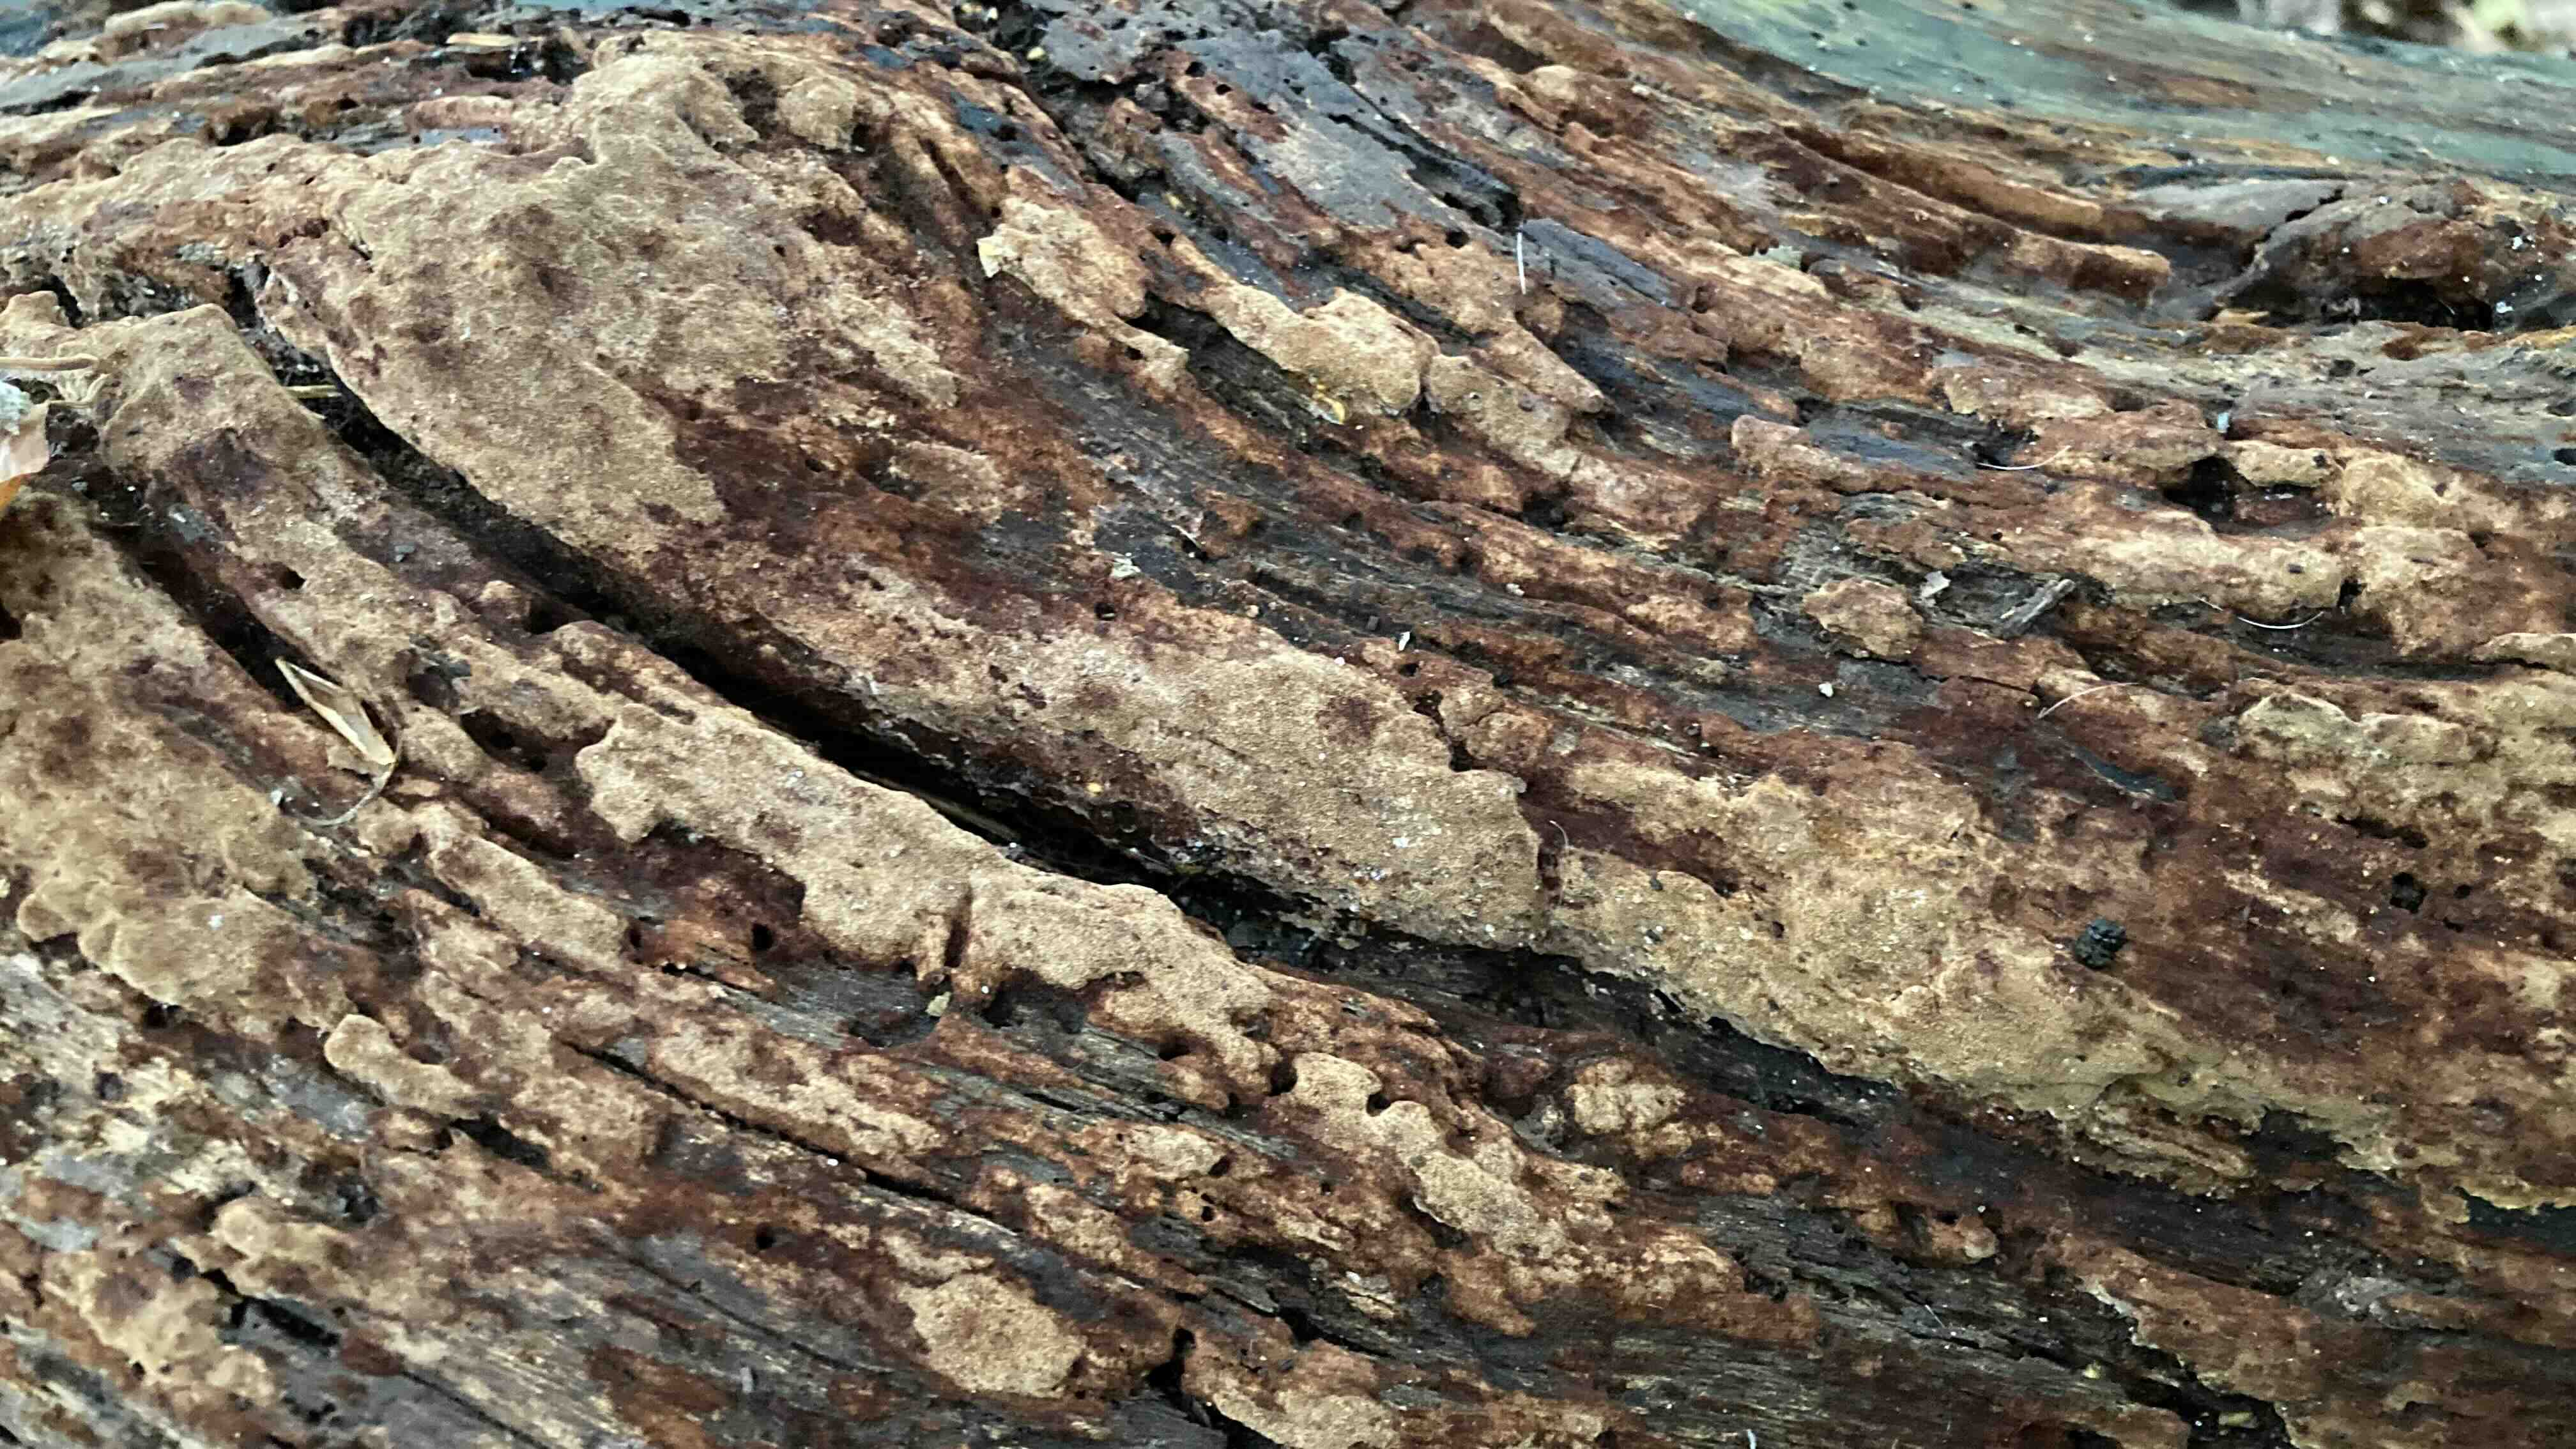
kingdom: Fungi
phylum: Basidiomycota
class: Agaricomycetes
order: Hymenochaetales
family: Hymenochaetaceae
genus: Fuscoporia
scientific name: Fuscoporia ferrea
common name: skorpe-ildporesvamp
